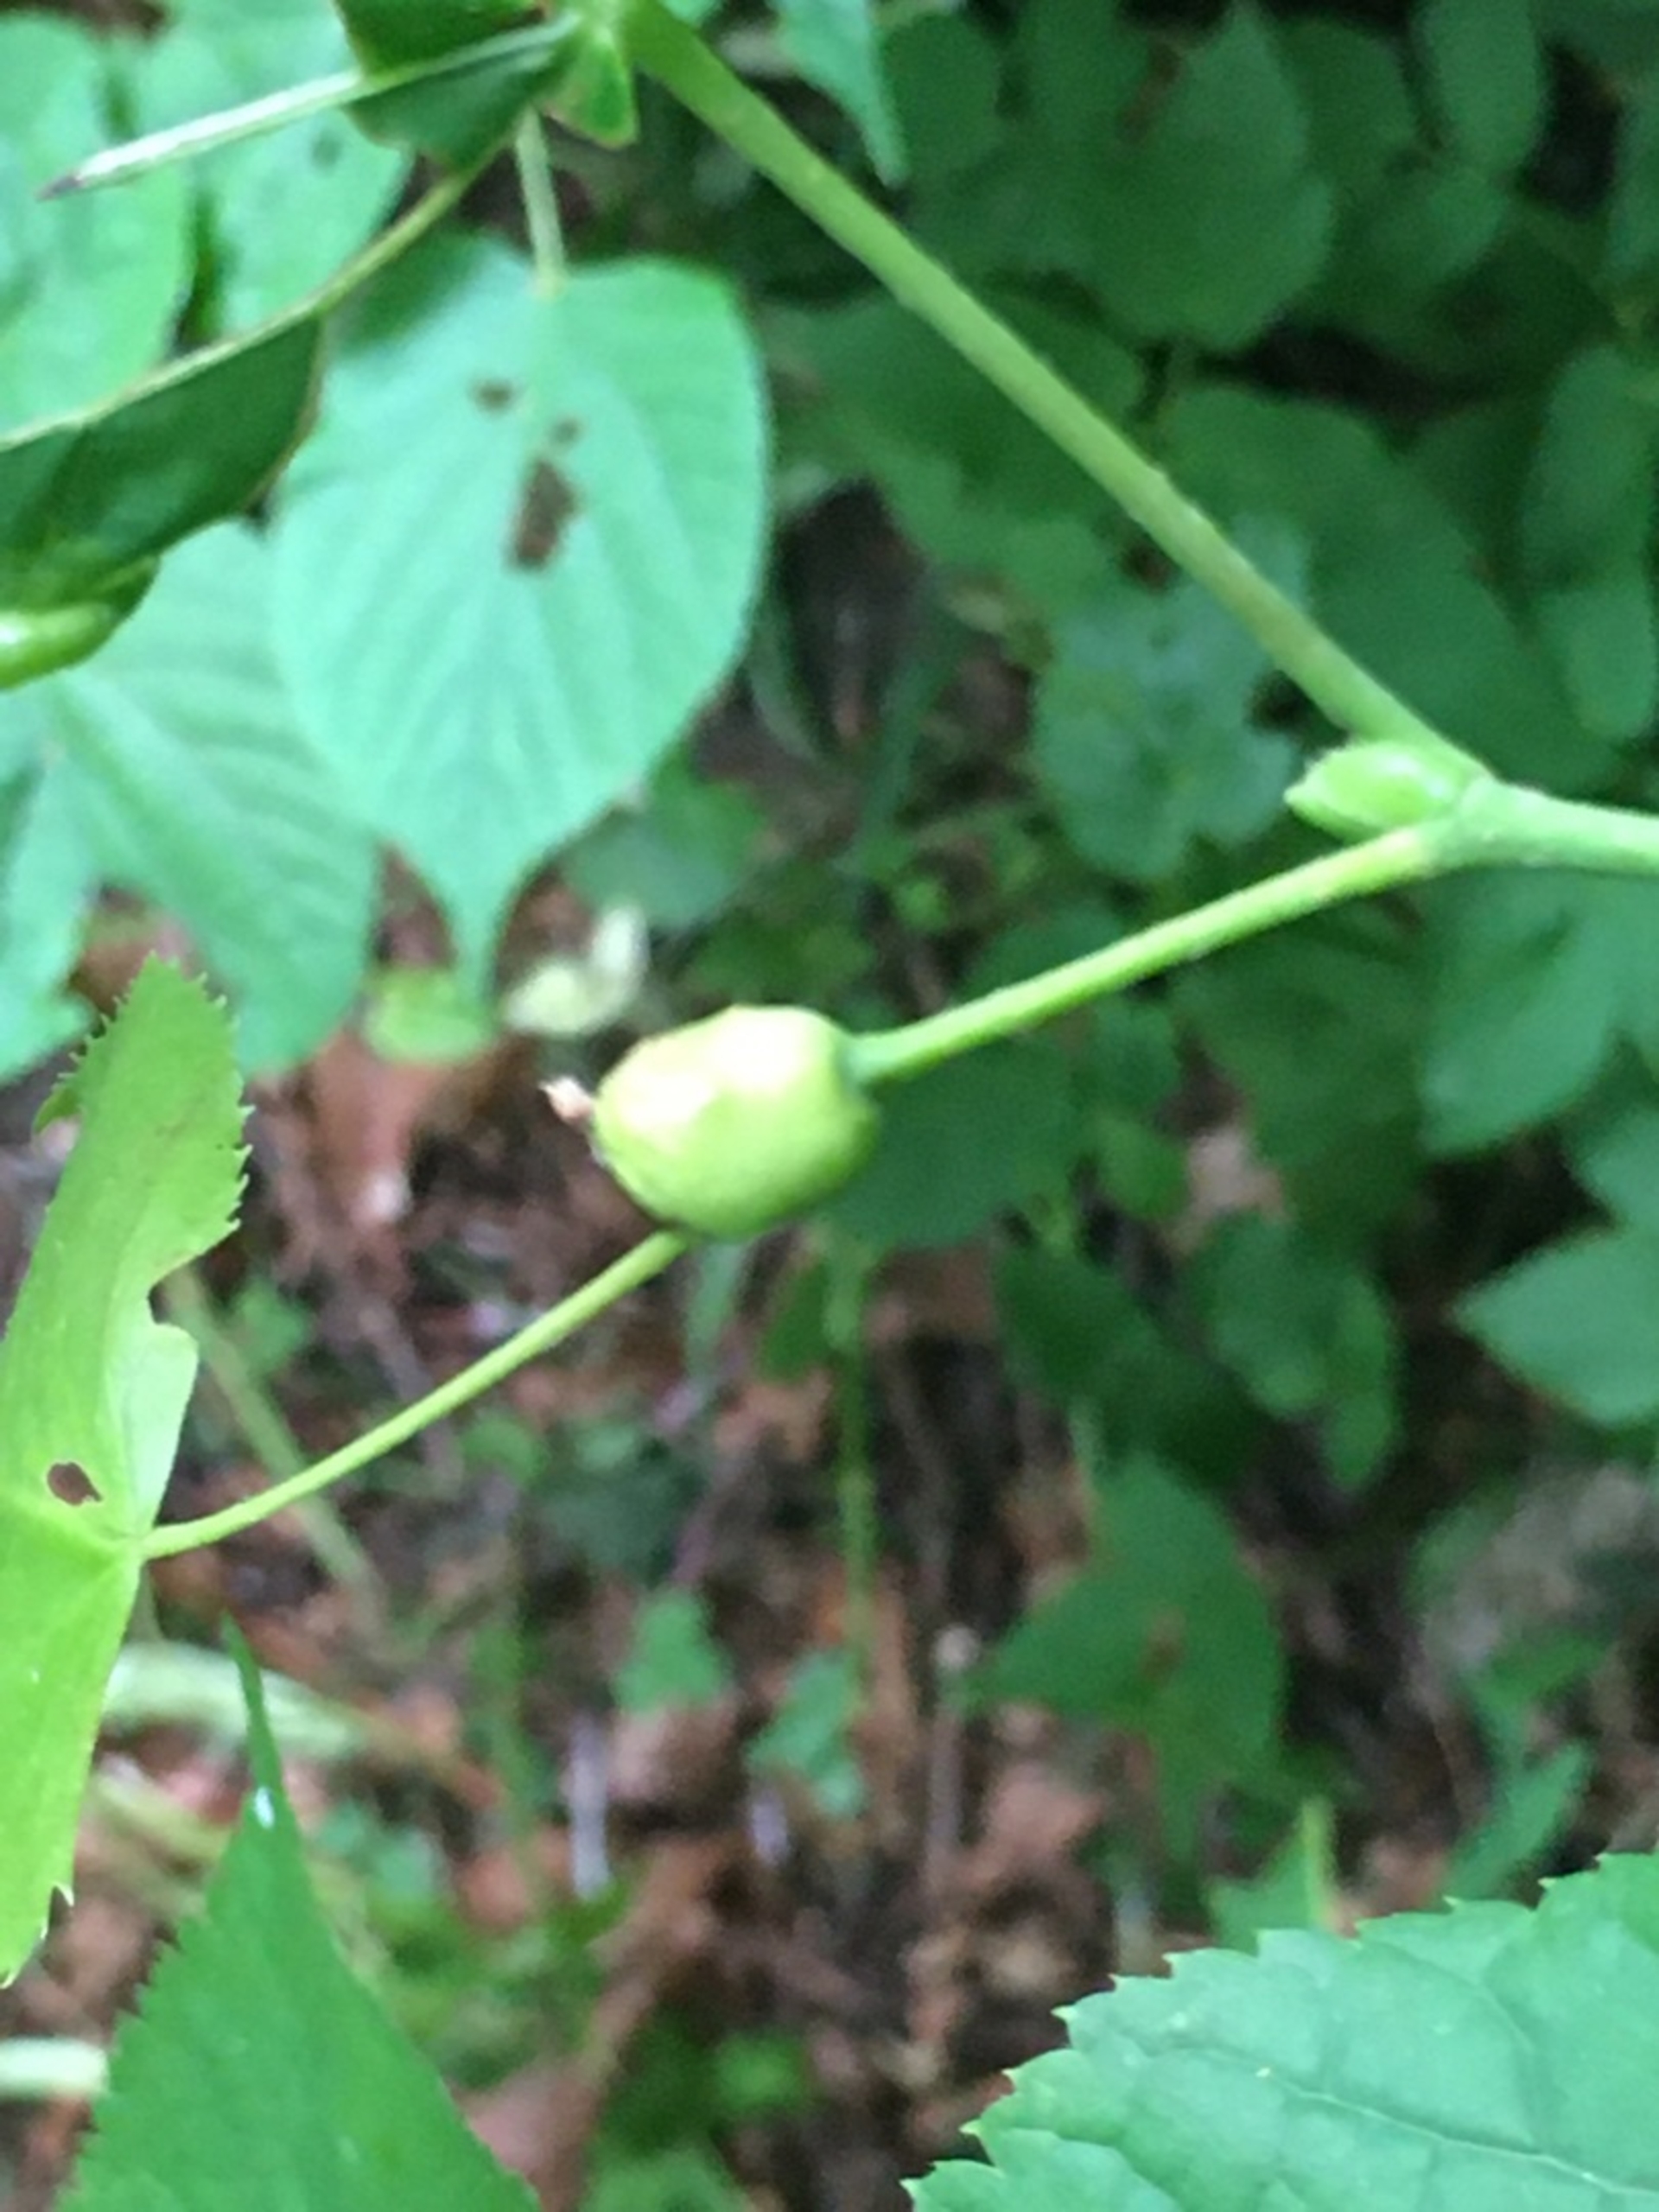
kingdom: Animalia
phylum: Arthropoda
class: Insecta
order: Diptera
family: Cecidomyiidae
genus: Contarinia
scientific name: Contarinia tiliarum
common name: Springende lindegalmyg
